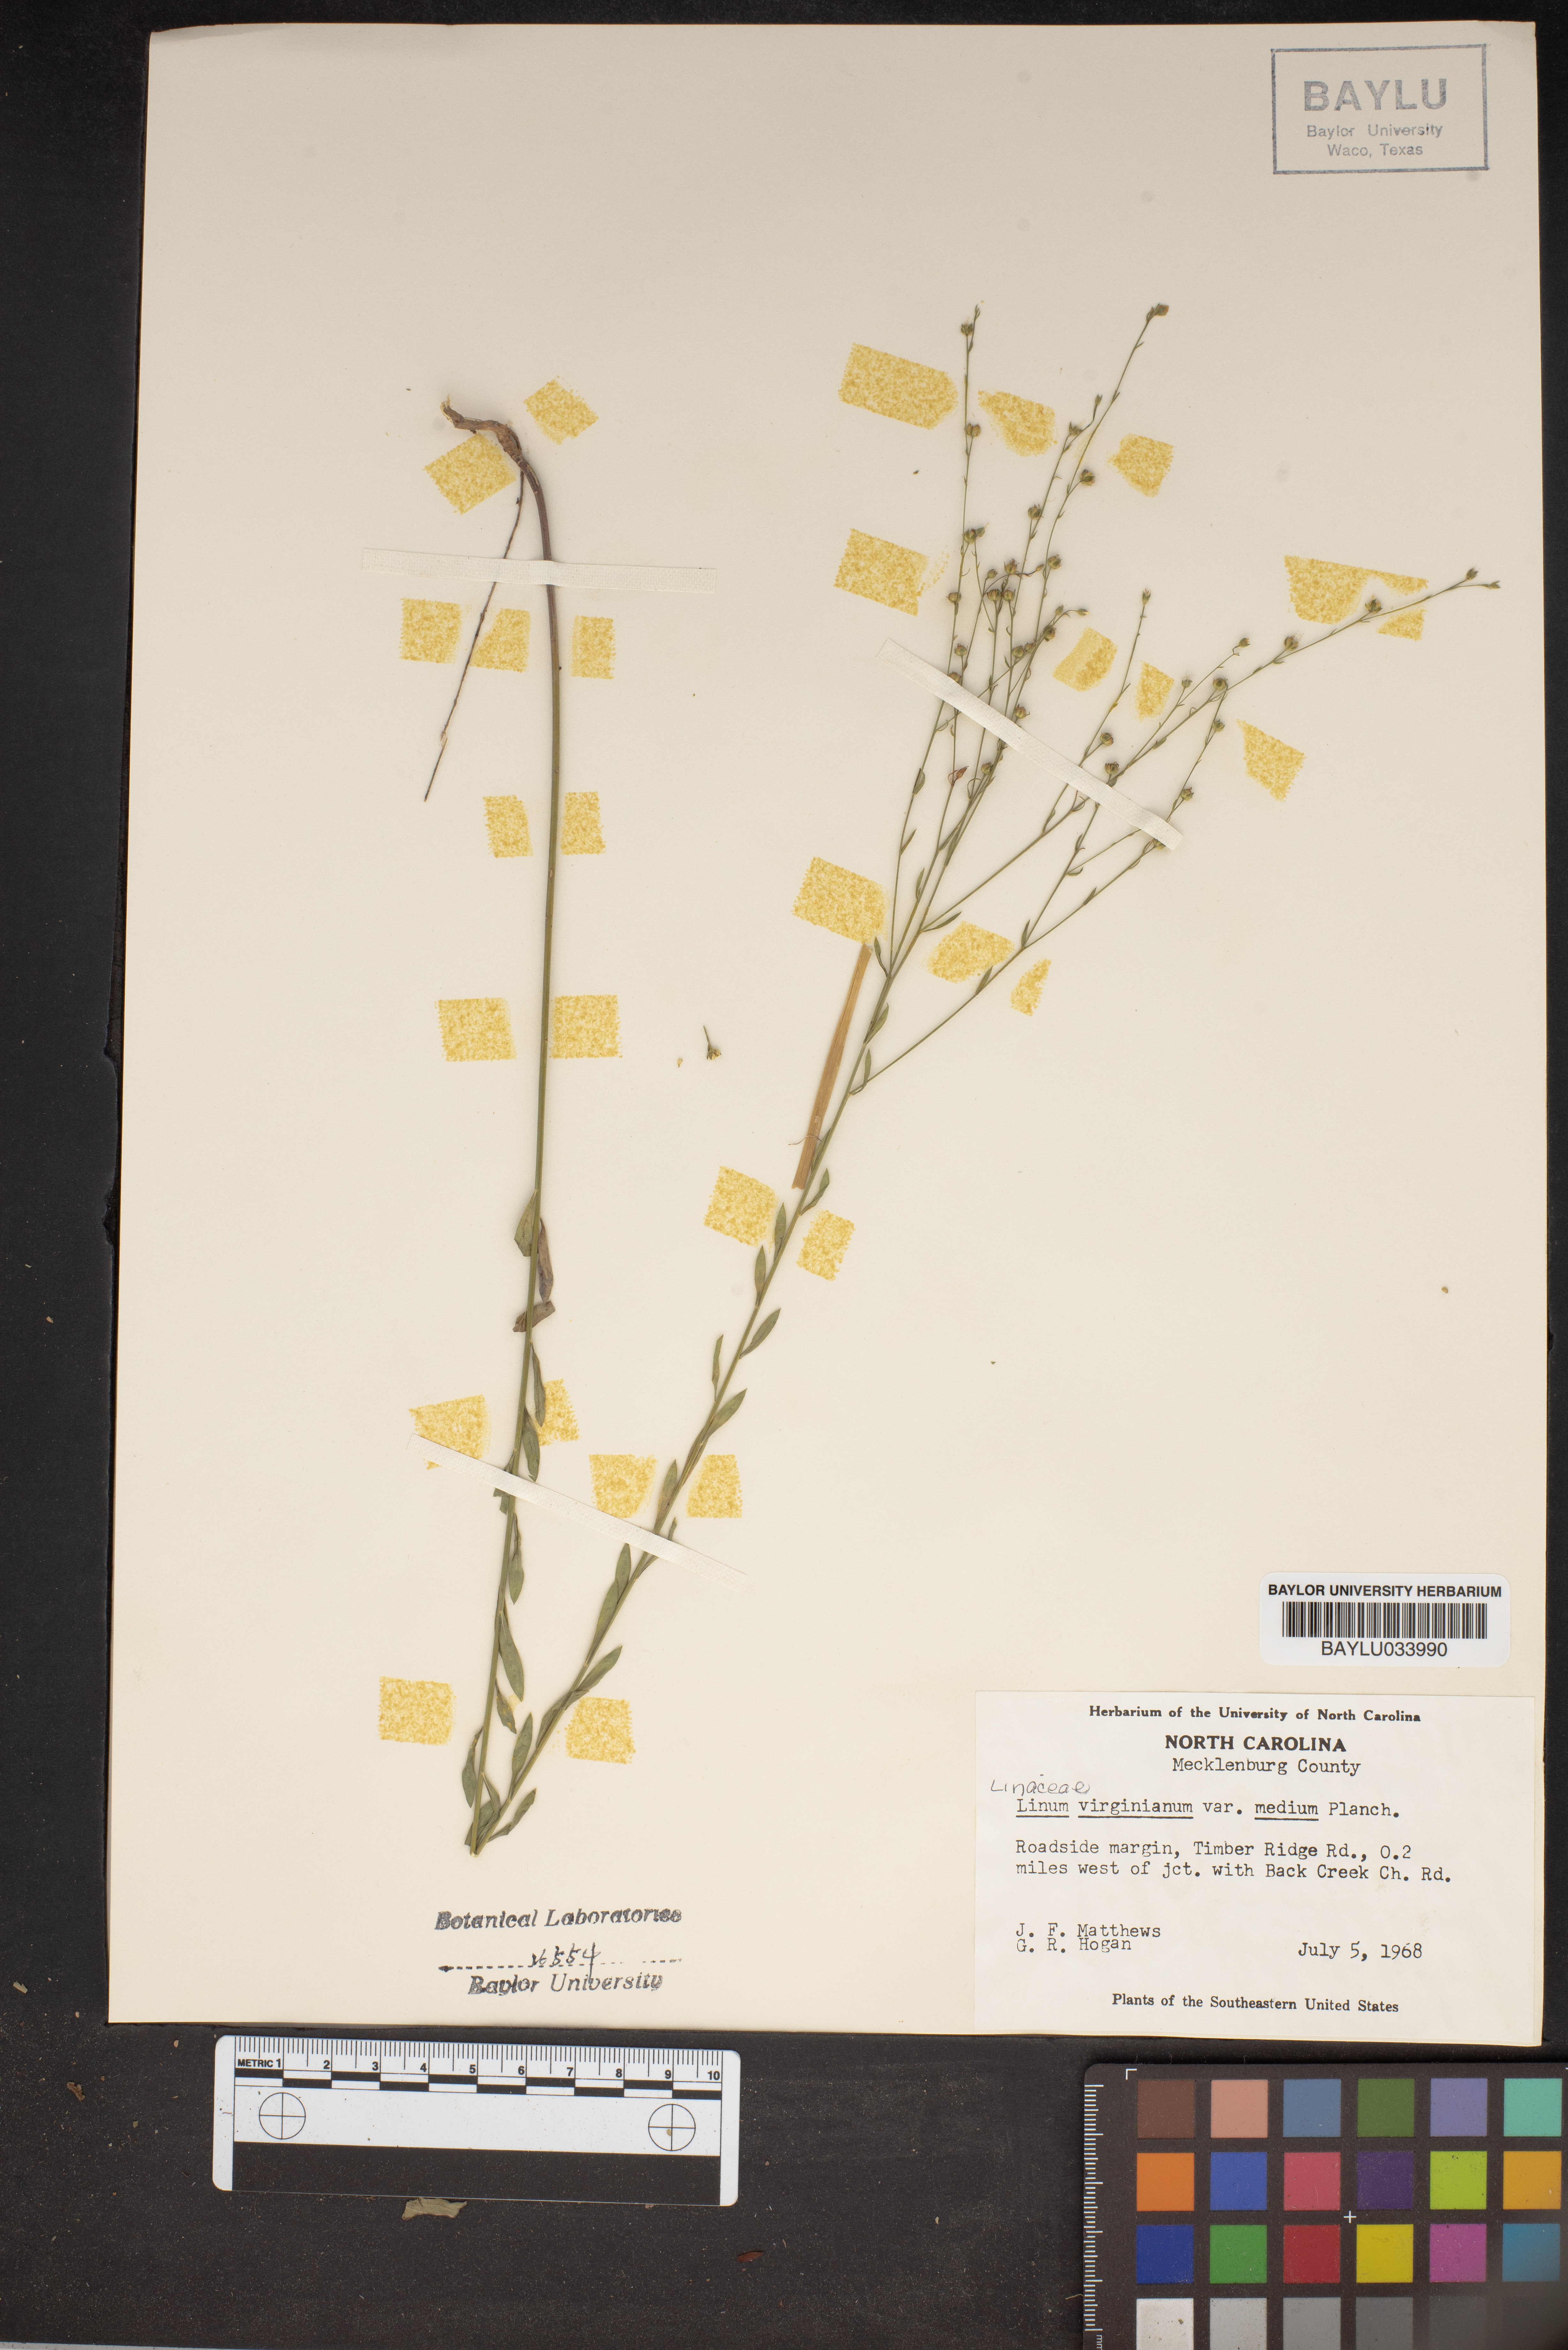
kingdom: Plantae
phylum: Tracheophyta
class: Magnoliopsida
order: Malpighiales
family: Linaceae
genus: Linum
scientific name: Linum medium
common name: Stiff yellow flax
